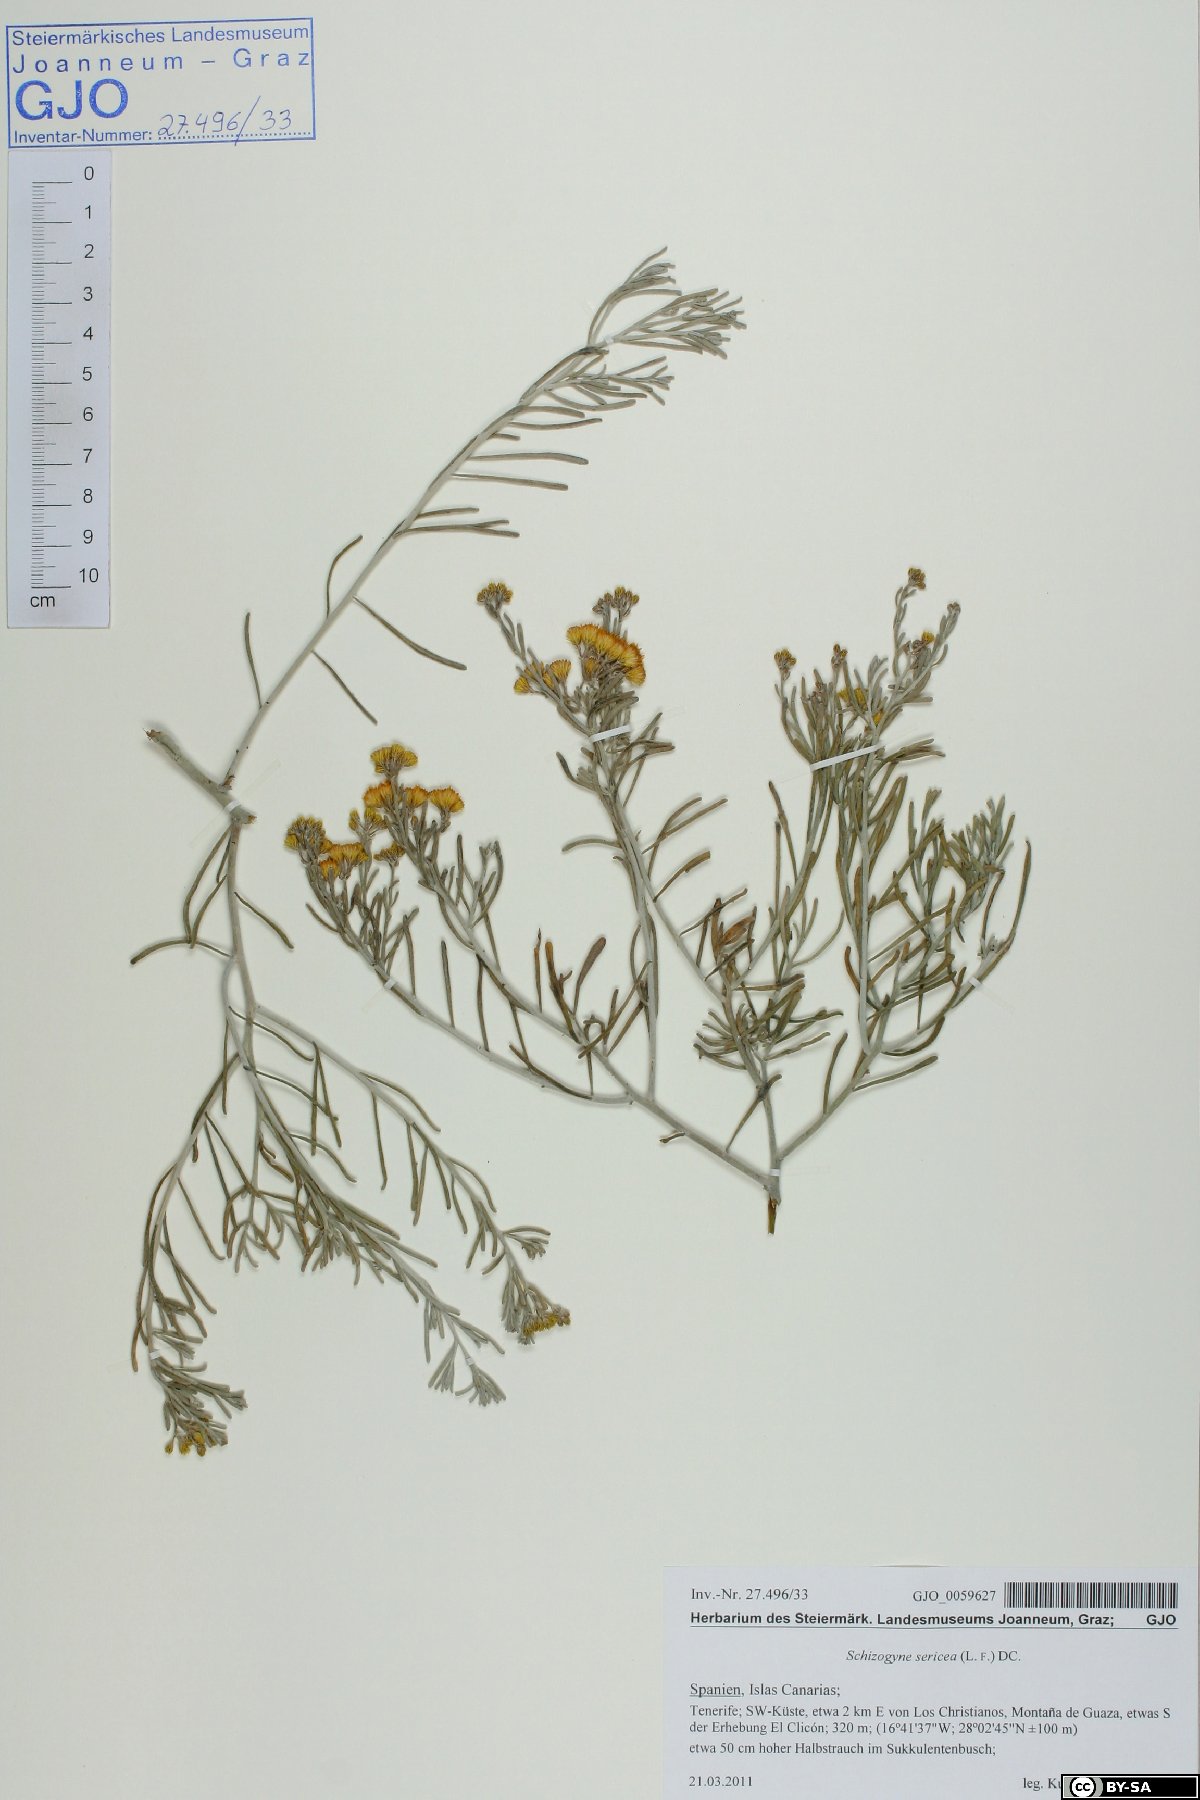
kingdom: Plantae
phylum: Tracheophyta
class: Magnoliopsida
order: Asterales
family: Asteraceae
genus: Schizogyne
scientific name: Schizogyne sericea
